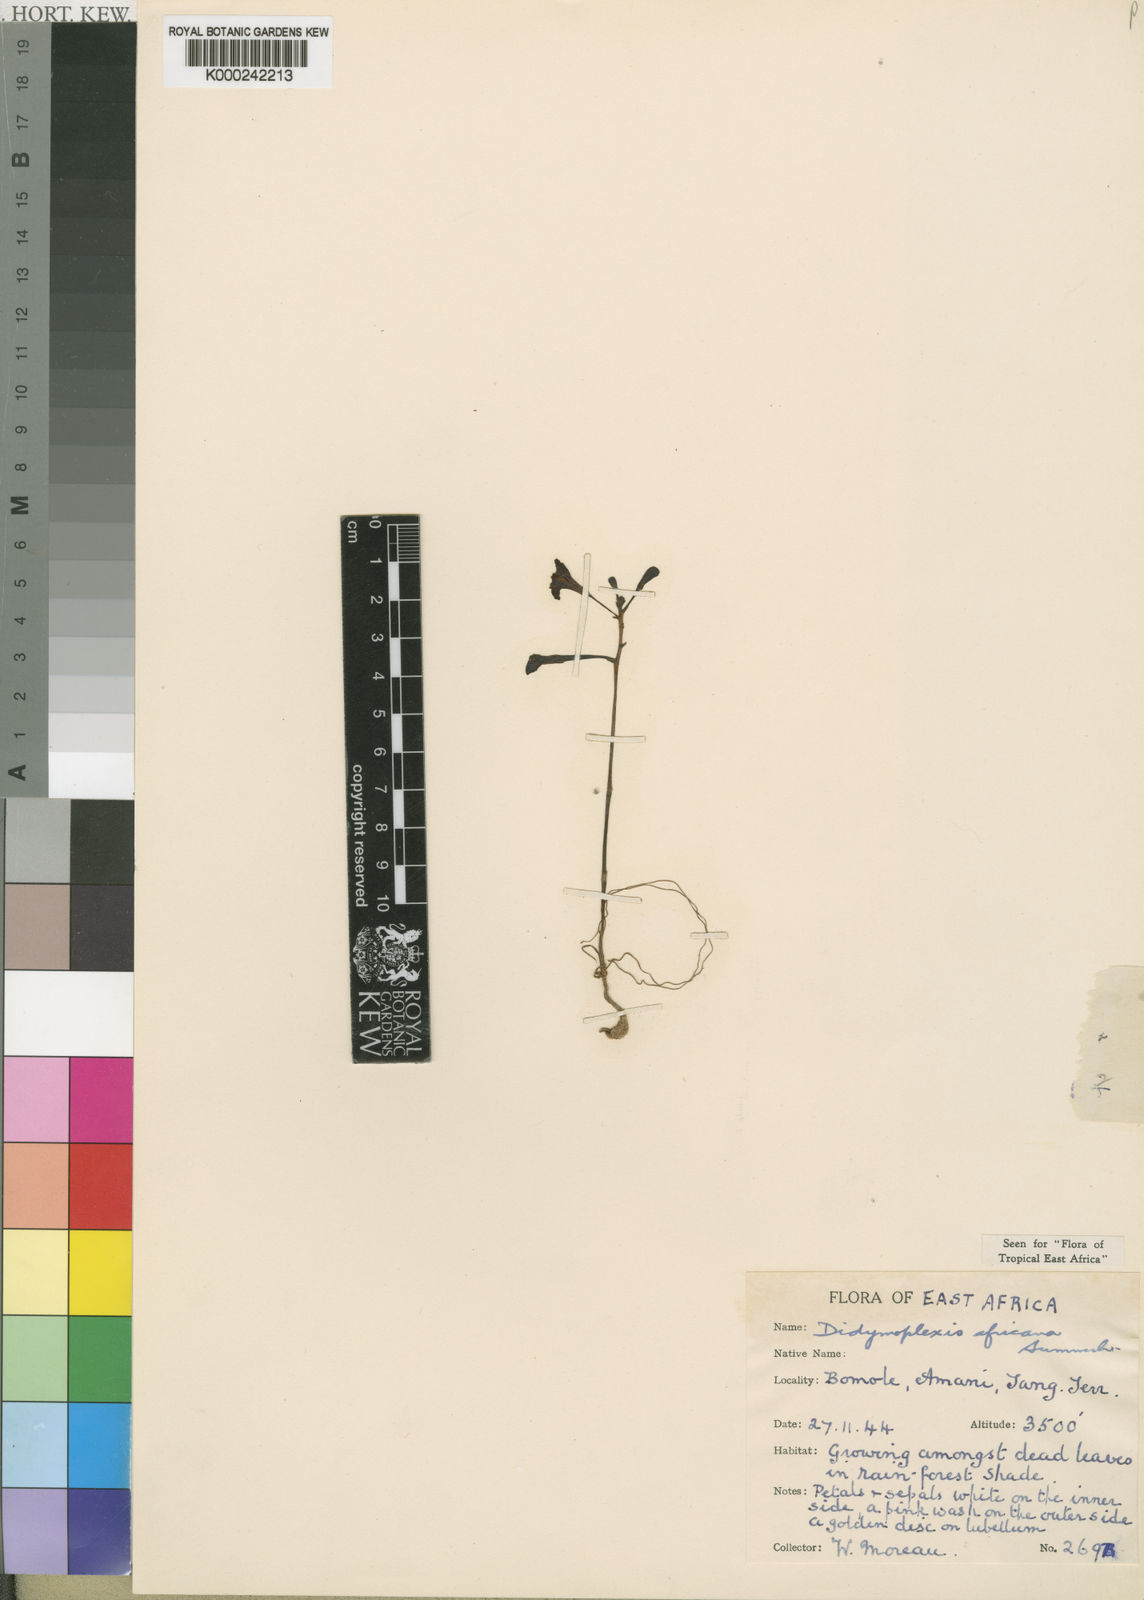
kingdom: Plantae
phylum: Tracheophyta
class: Liliopsida
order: Asparagales
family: Orchidaceae
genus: Polystachya
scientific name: Polystachya zambesiaca
